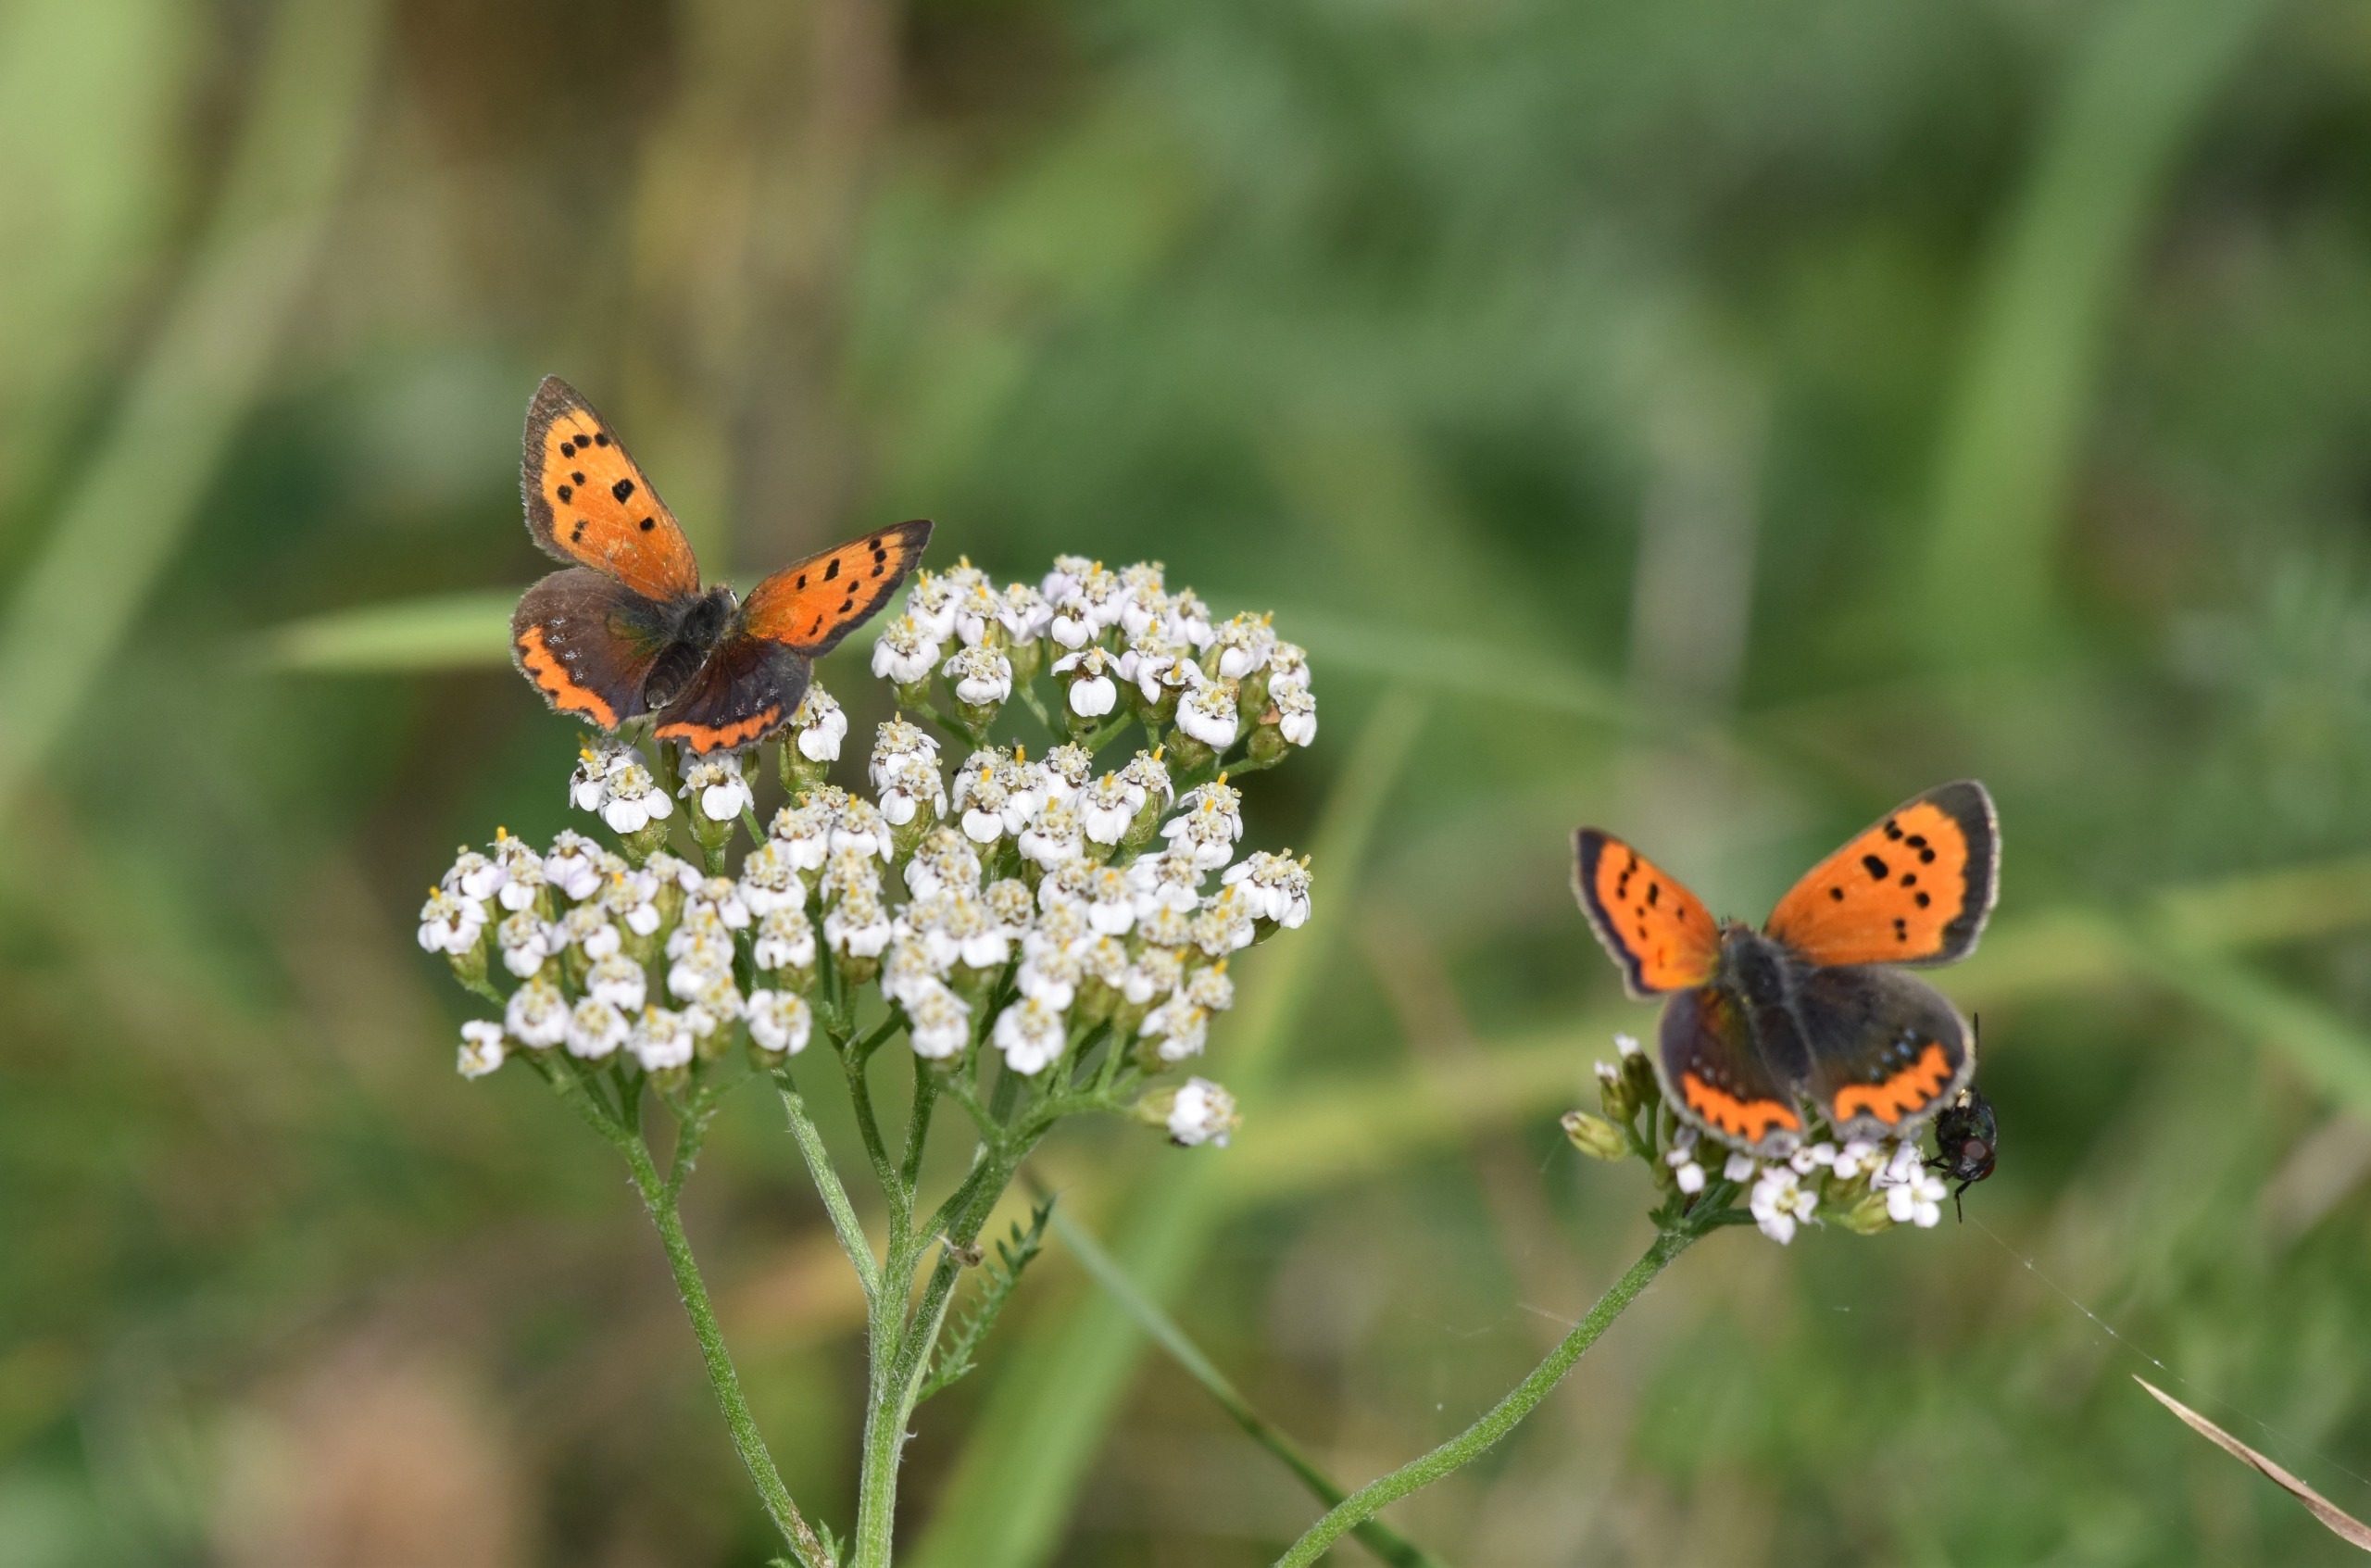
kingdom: Animalia
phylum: Arthropoda
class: Insecta
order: Lepidoptera
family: Lycaenidae
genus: Lycaena
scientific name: Lycaena phlaeas
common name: Lille ildfugl
